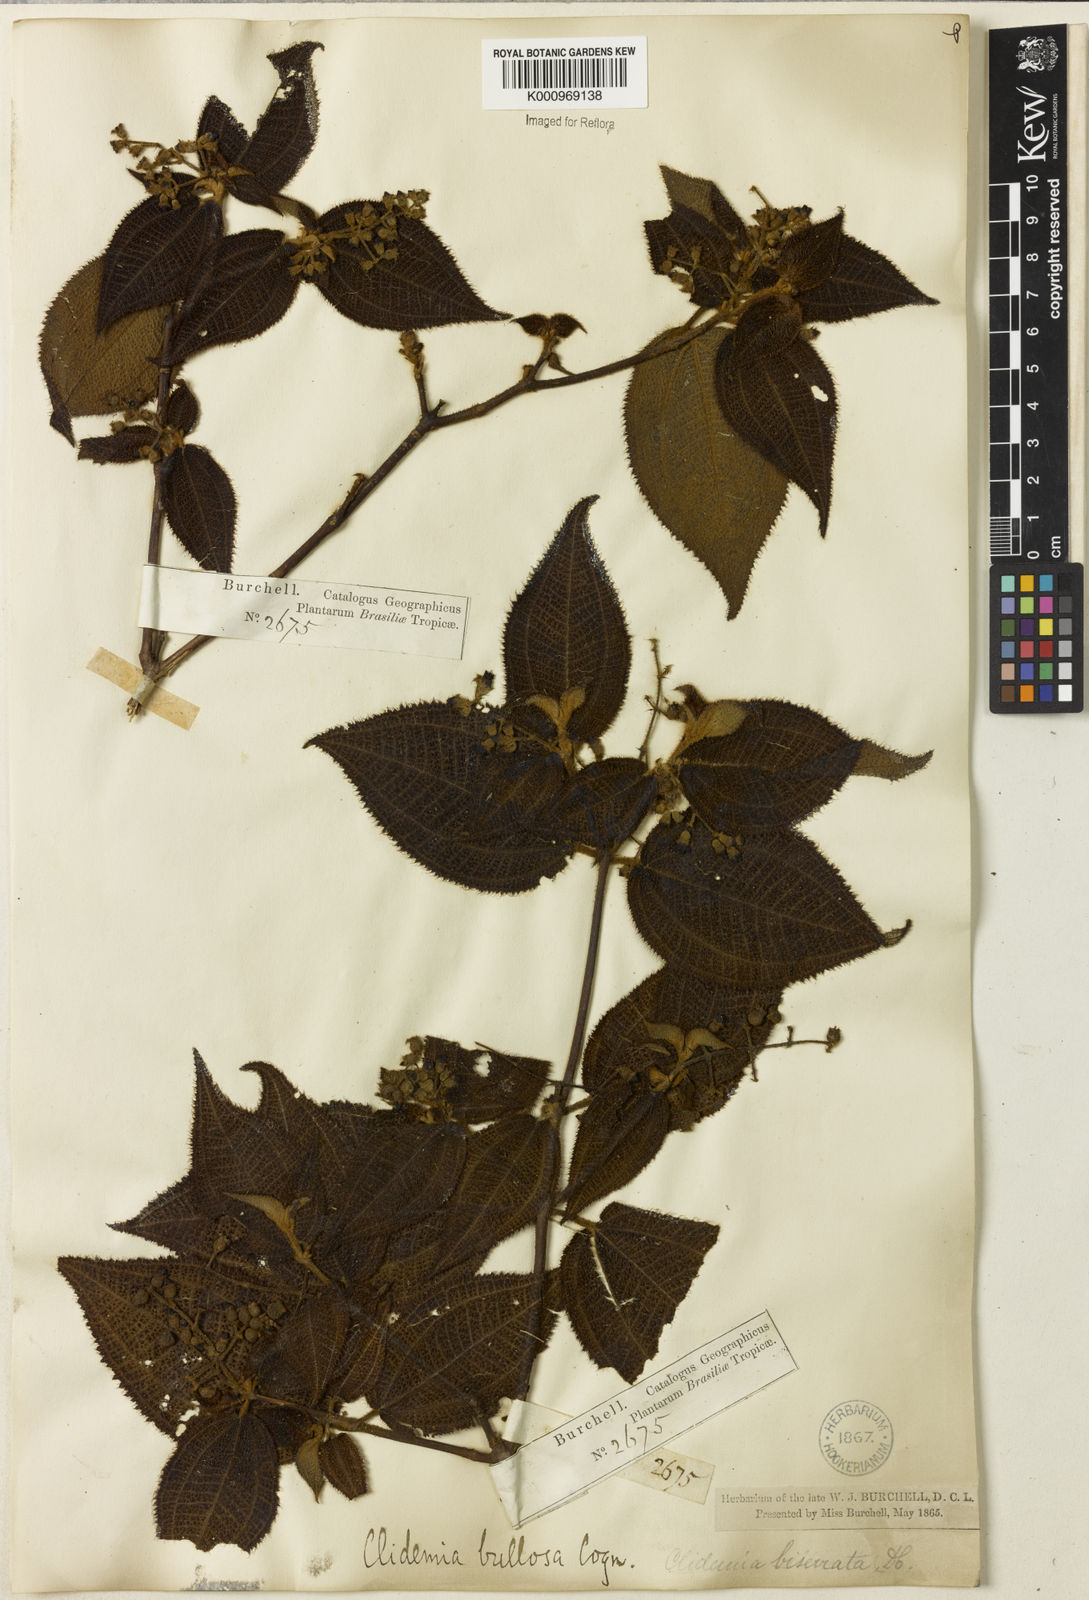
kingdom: Plantae
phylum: Tracheophyta
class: Magnoliopsida
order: Myrtales
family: Melastomataceae
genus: Miconia
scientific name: Miconia biserrata
